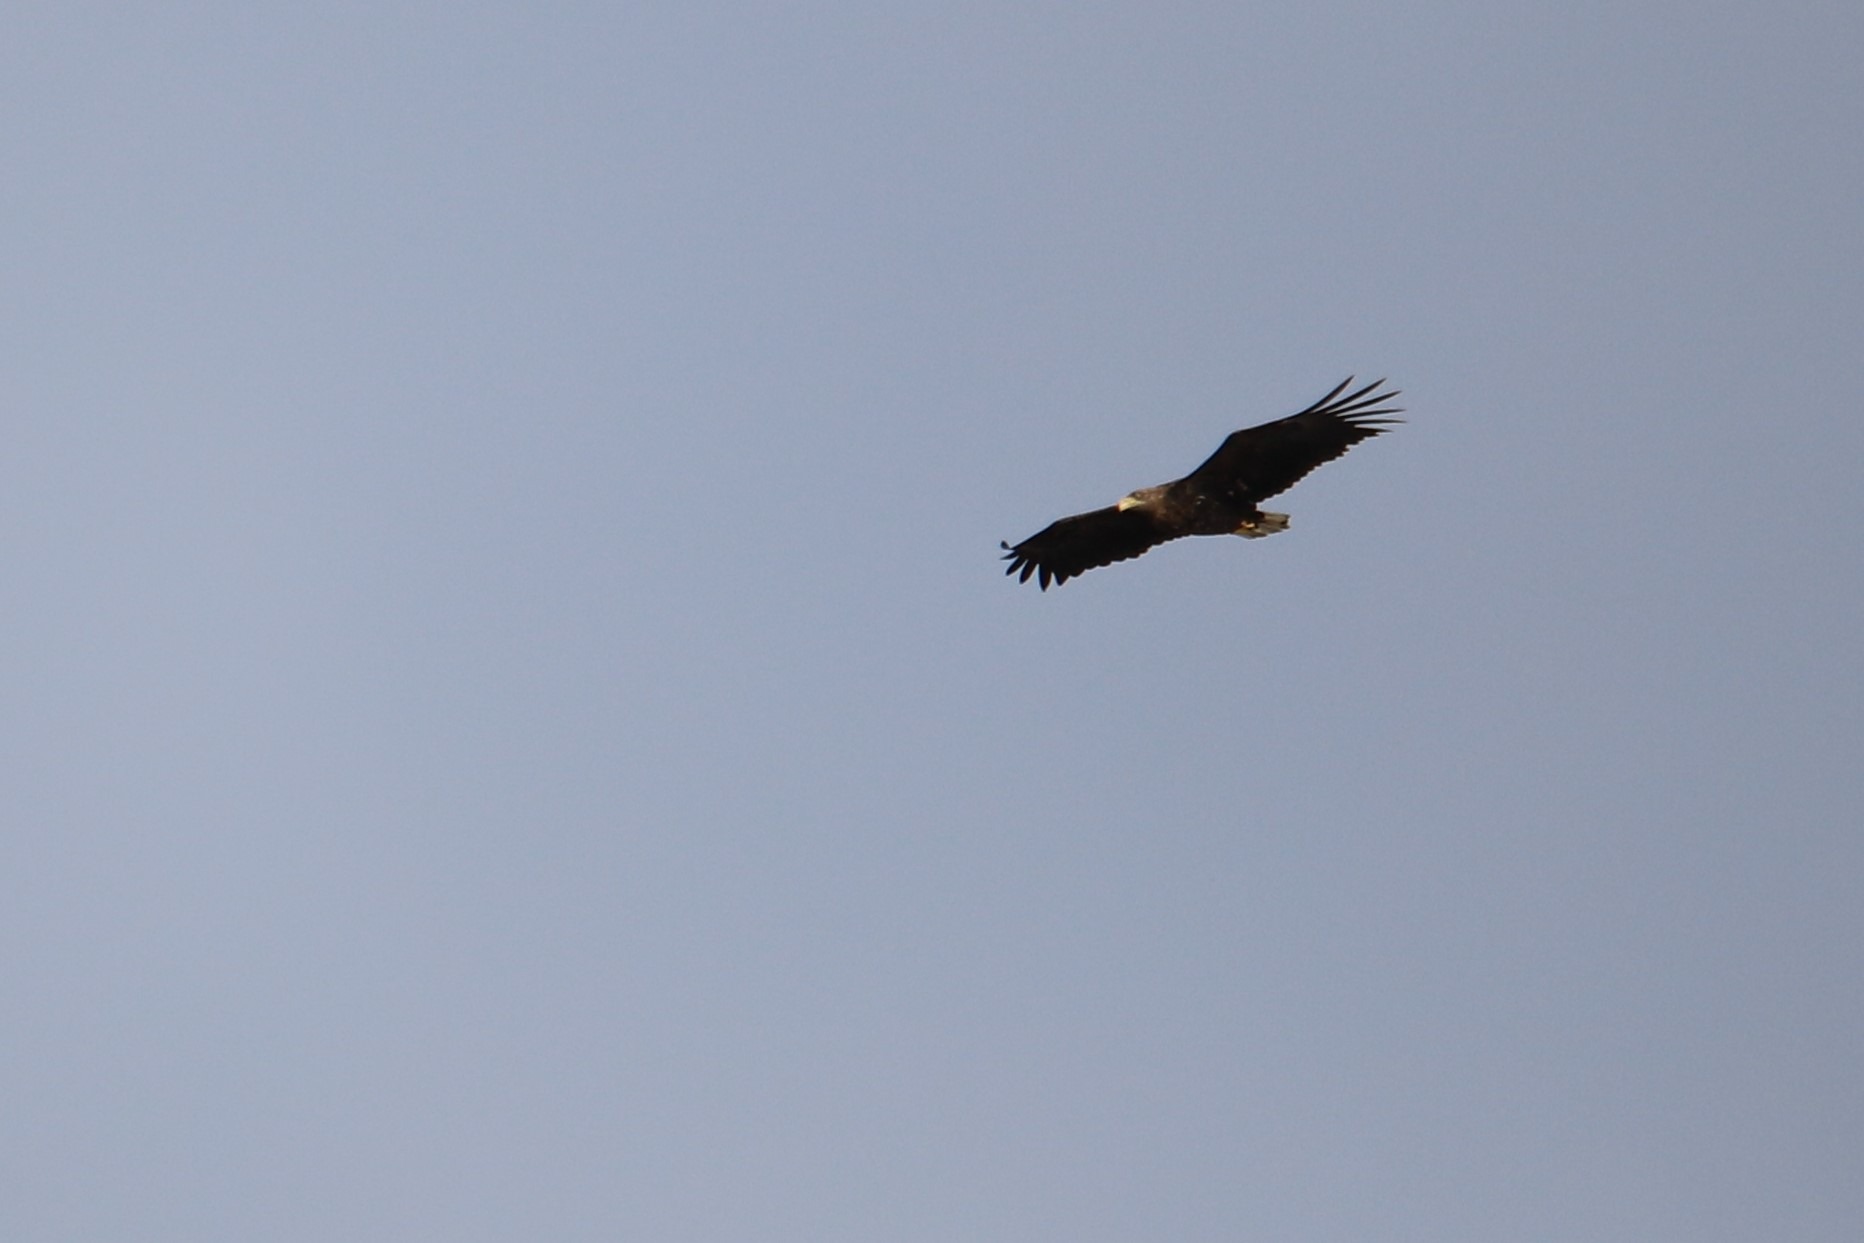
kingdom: Animalia
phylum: Chordata
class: Aves
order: Accipitriformes
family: Accipitridae
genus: Haliaeetus
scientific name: Haliaeetus albicilla
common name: Havørn
